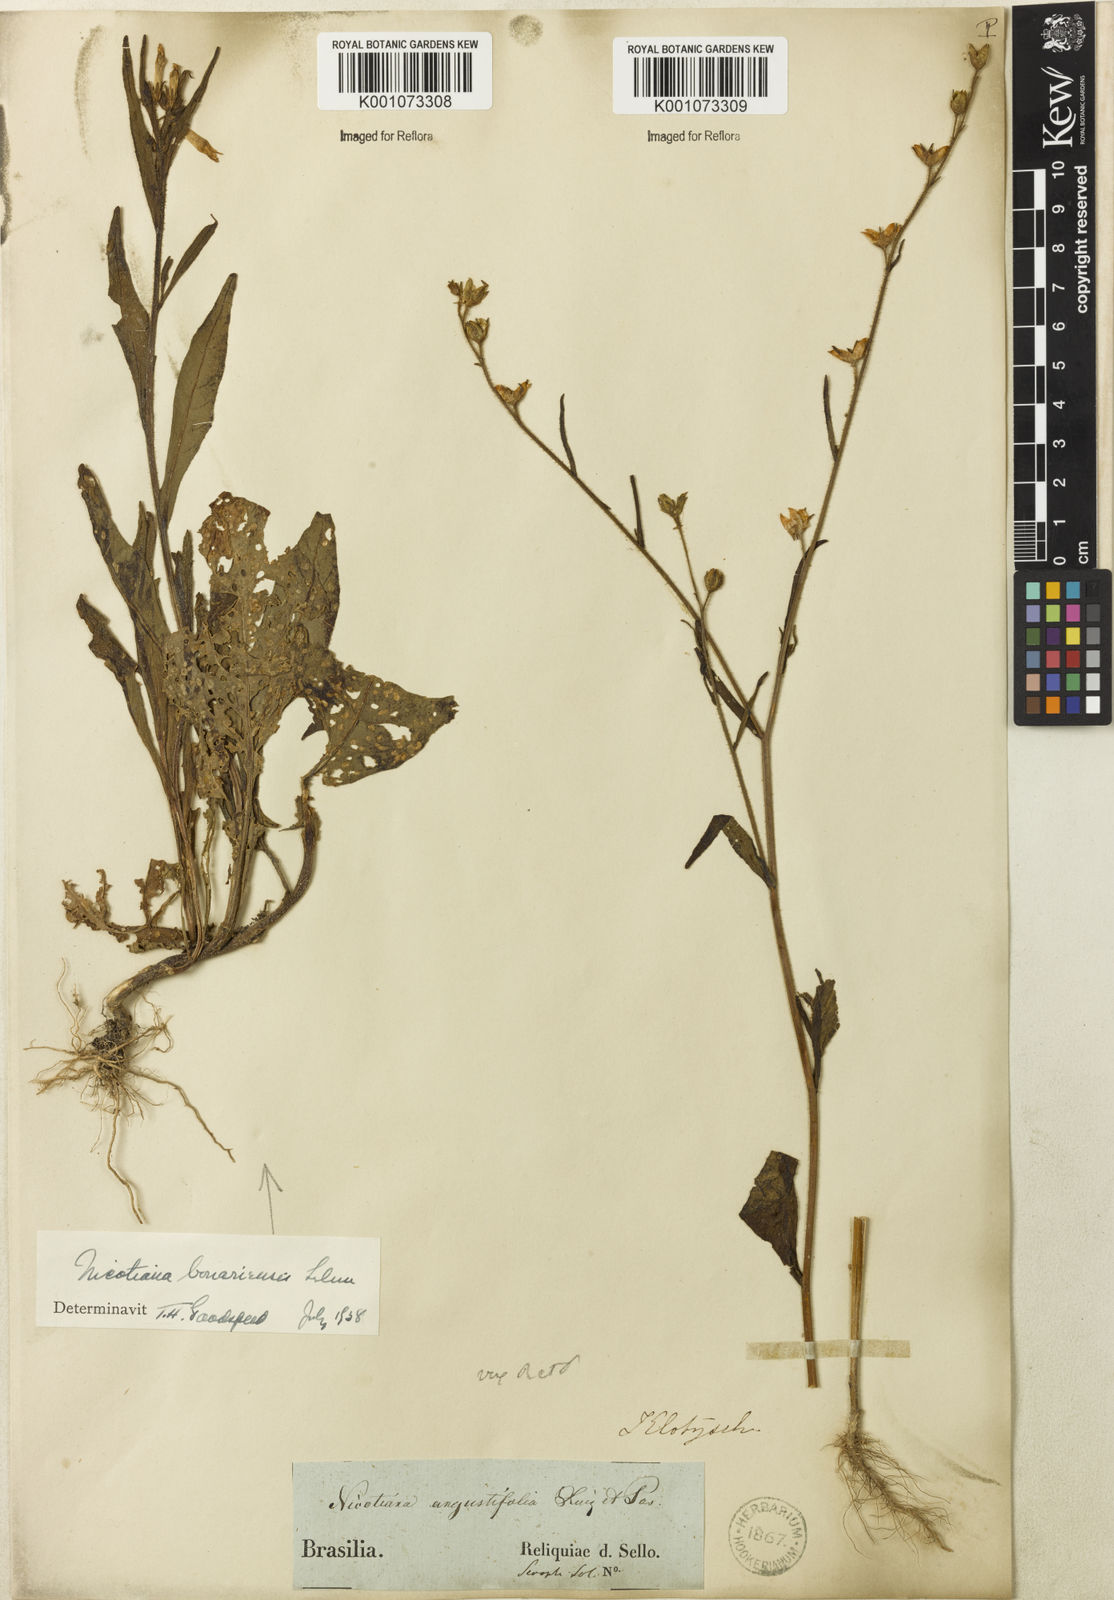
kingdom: Plantae
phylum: Tracheophyta
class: Magnoliopsida
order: Solanales
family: Solanaceae
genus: Nicotiana
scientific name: Nicotiana acuminata
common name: Manyflower tobacco
